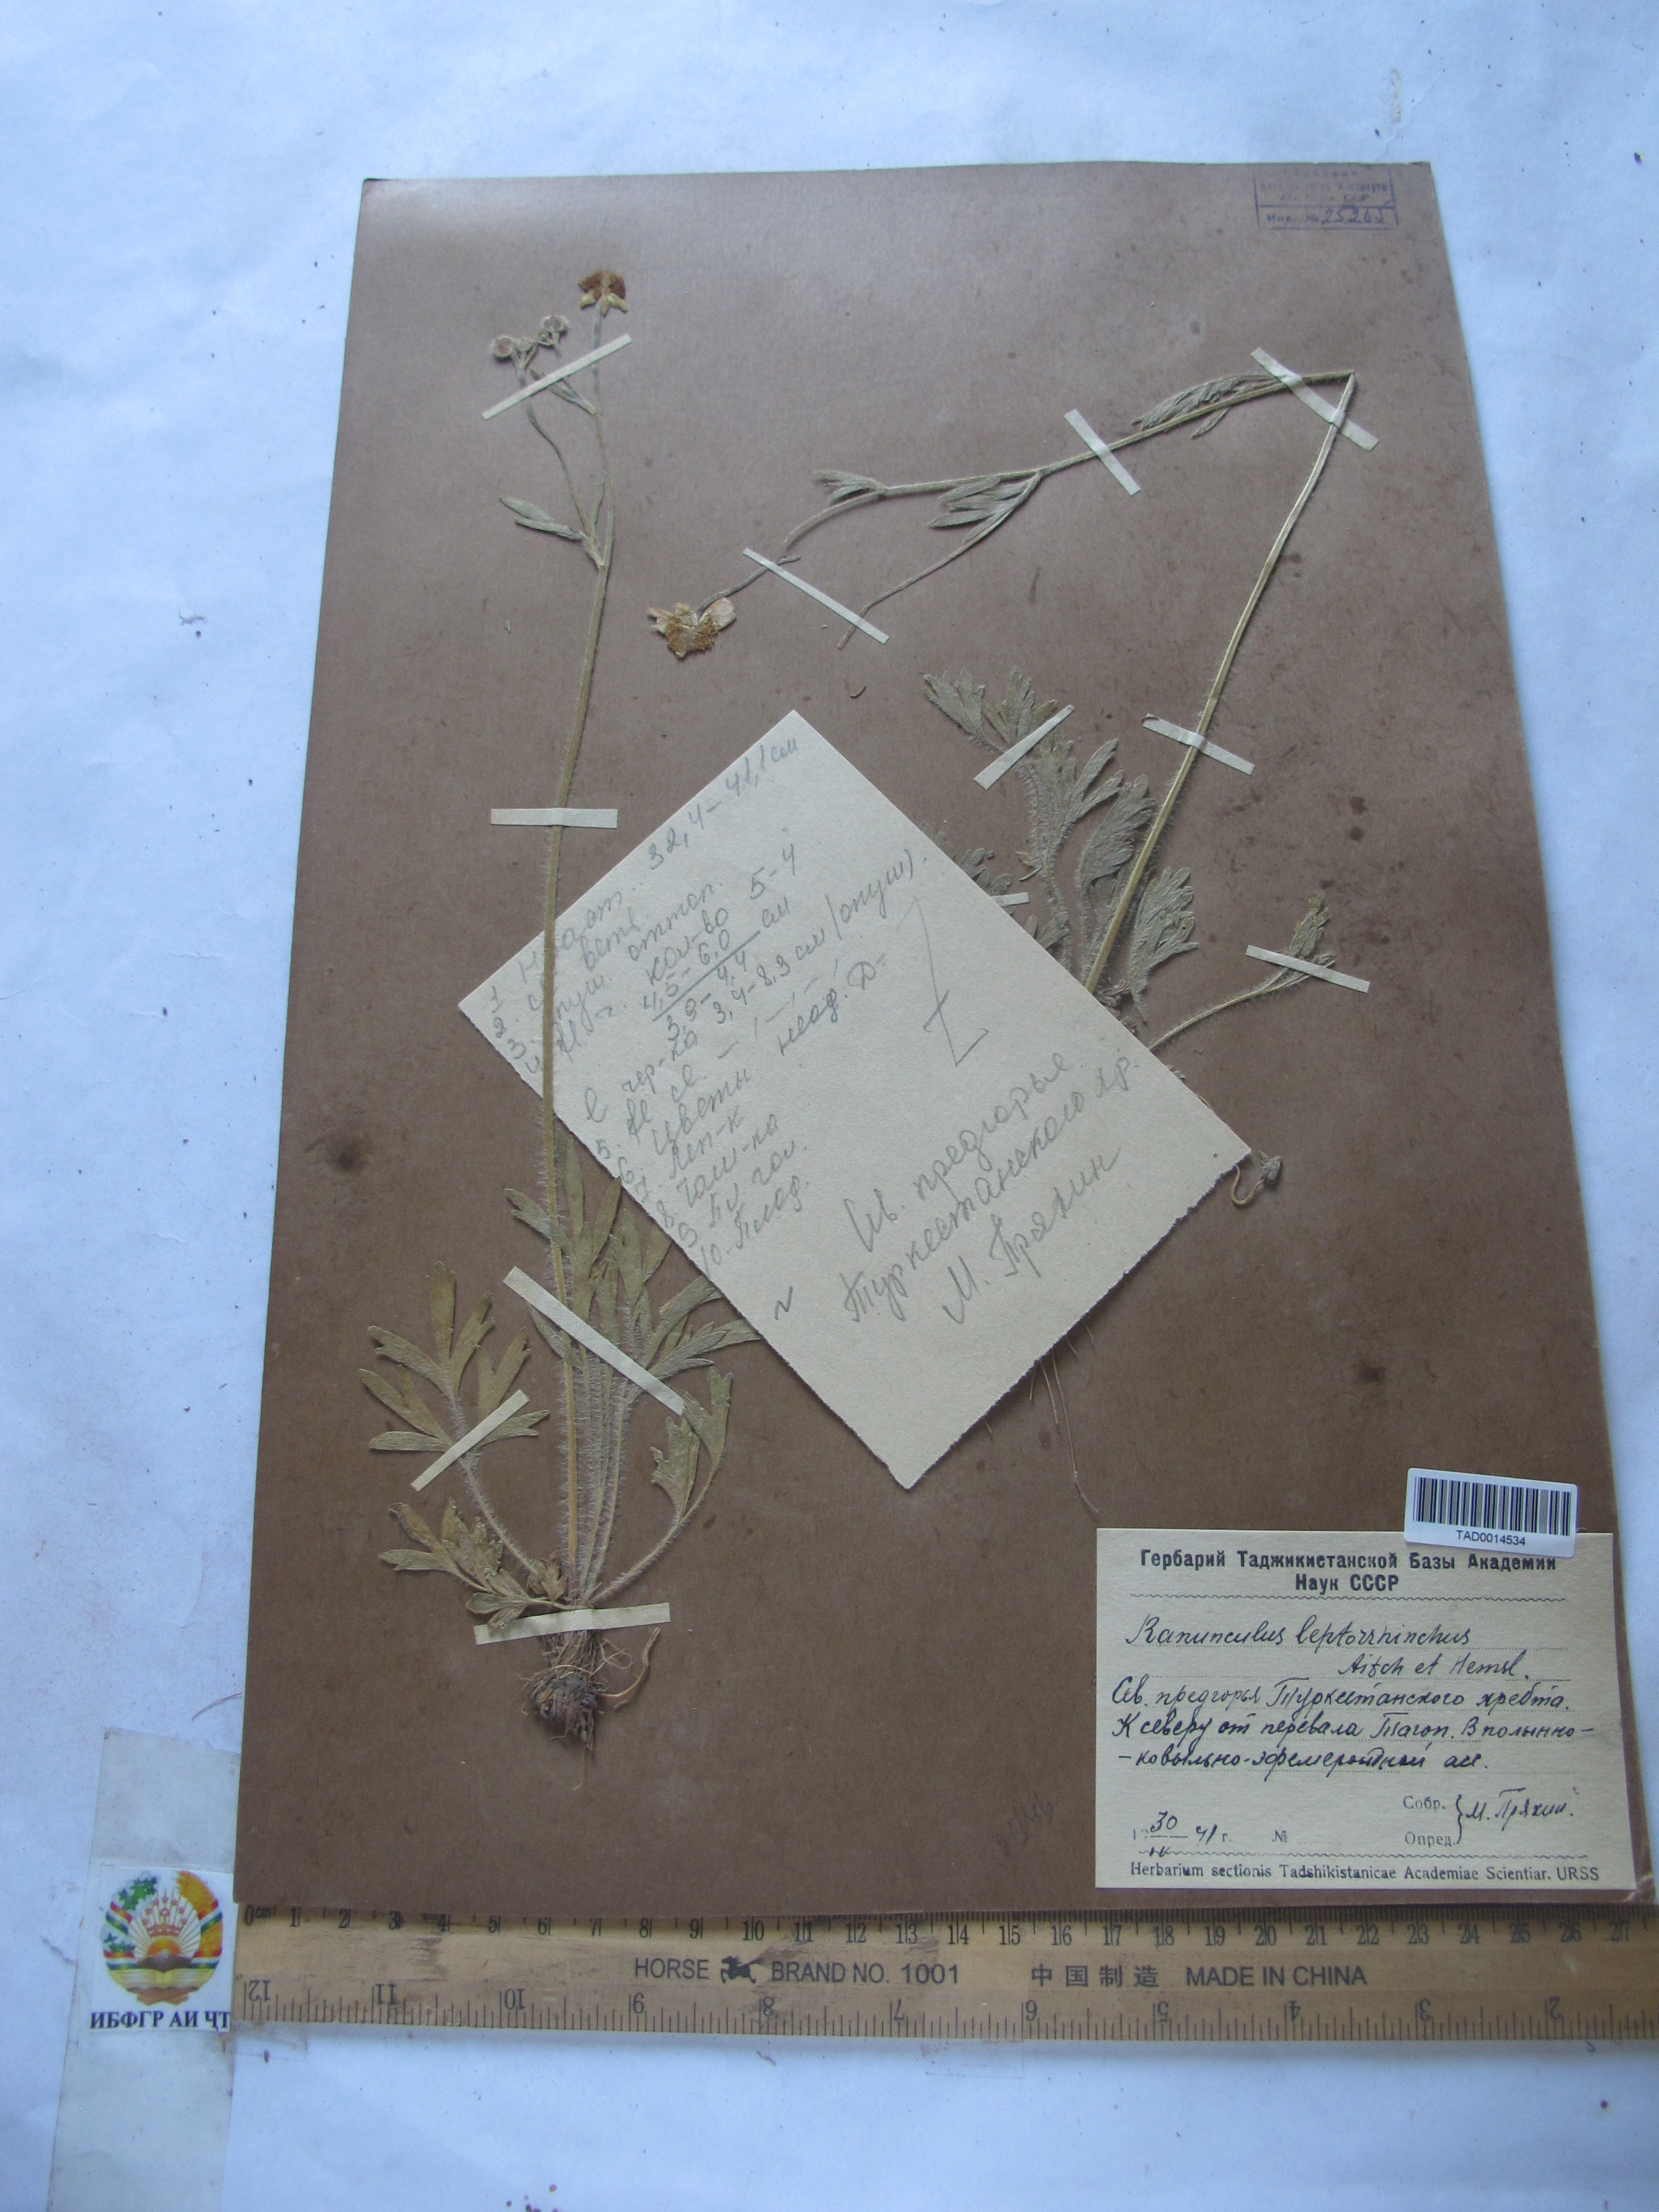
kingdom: Plantae
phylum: Tracheophyta
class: Magnoliopsida
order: Ranunculales
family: Ranunculaceae
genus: Ranunculus
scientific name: Ranunculus leptorrhynchus
